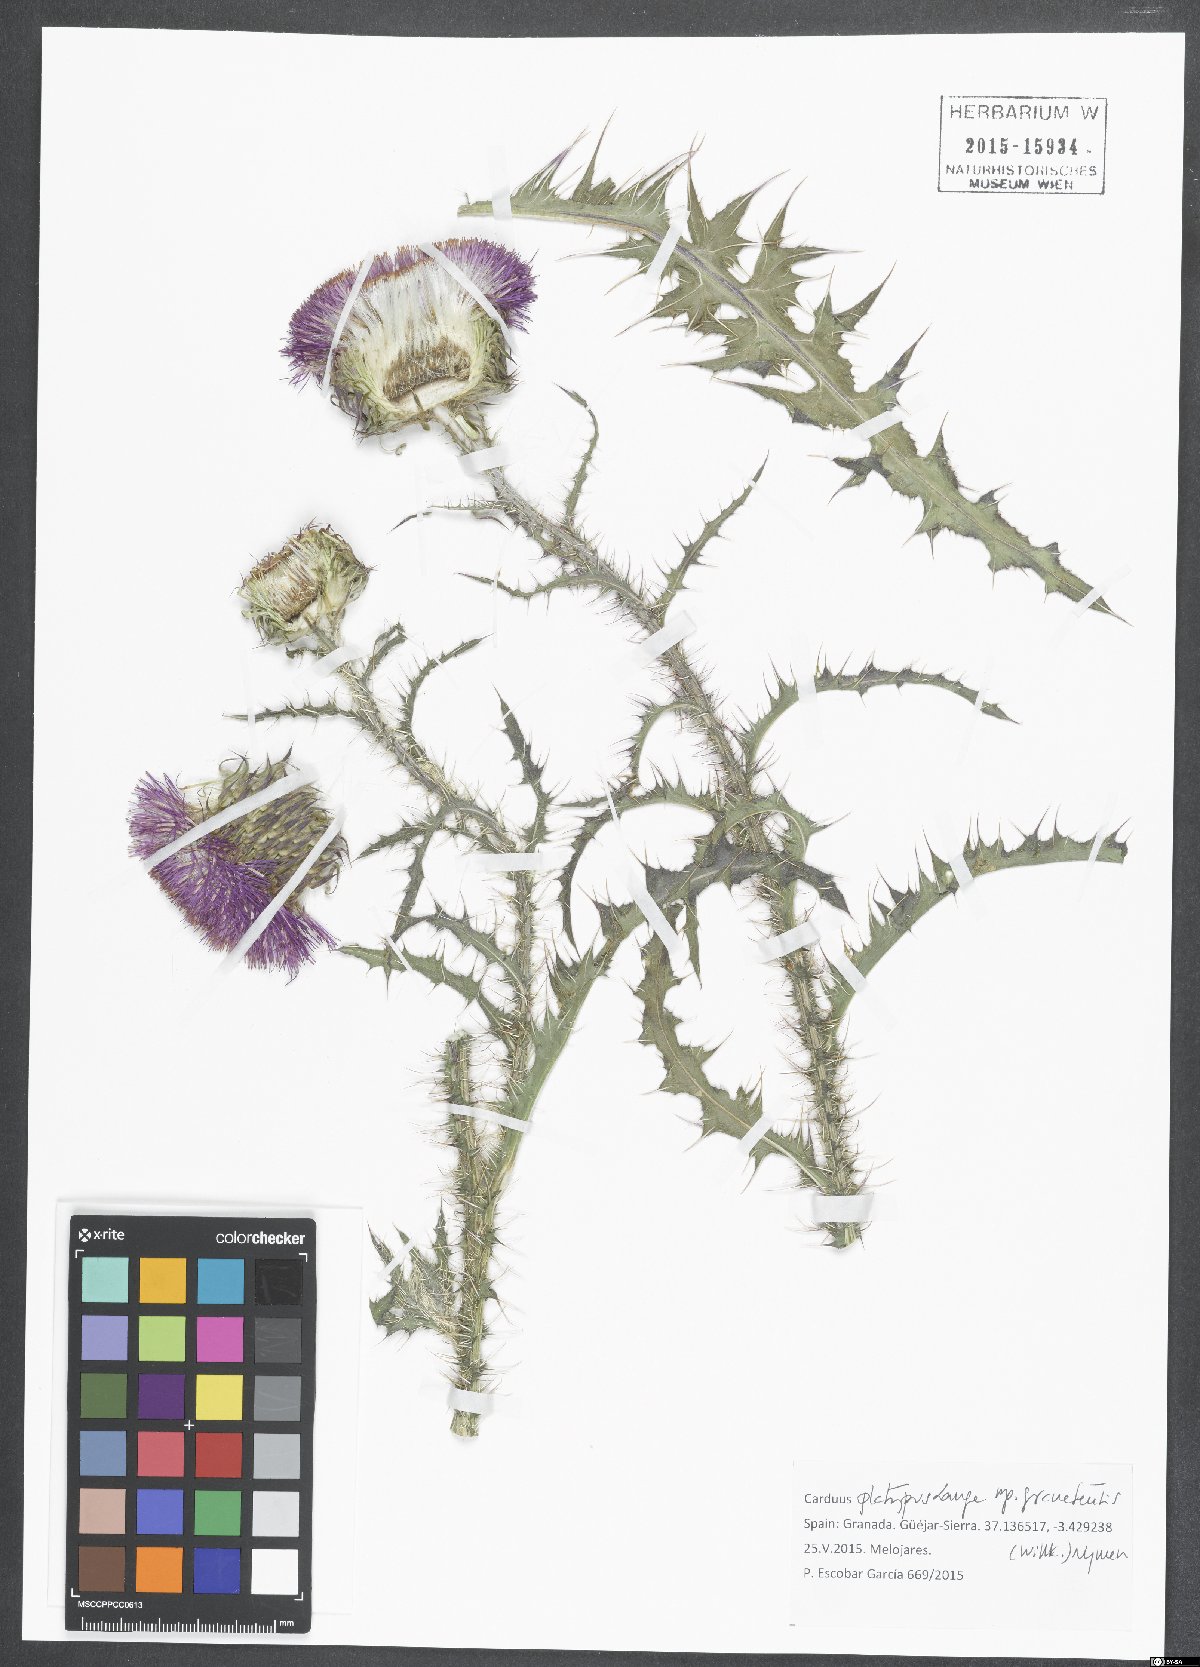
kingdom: Plantae
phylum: Tracheophyta
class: Magnoliopsida
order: Asterales
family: Asteraceae
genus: Carduus
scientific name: Carduus platypus
